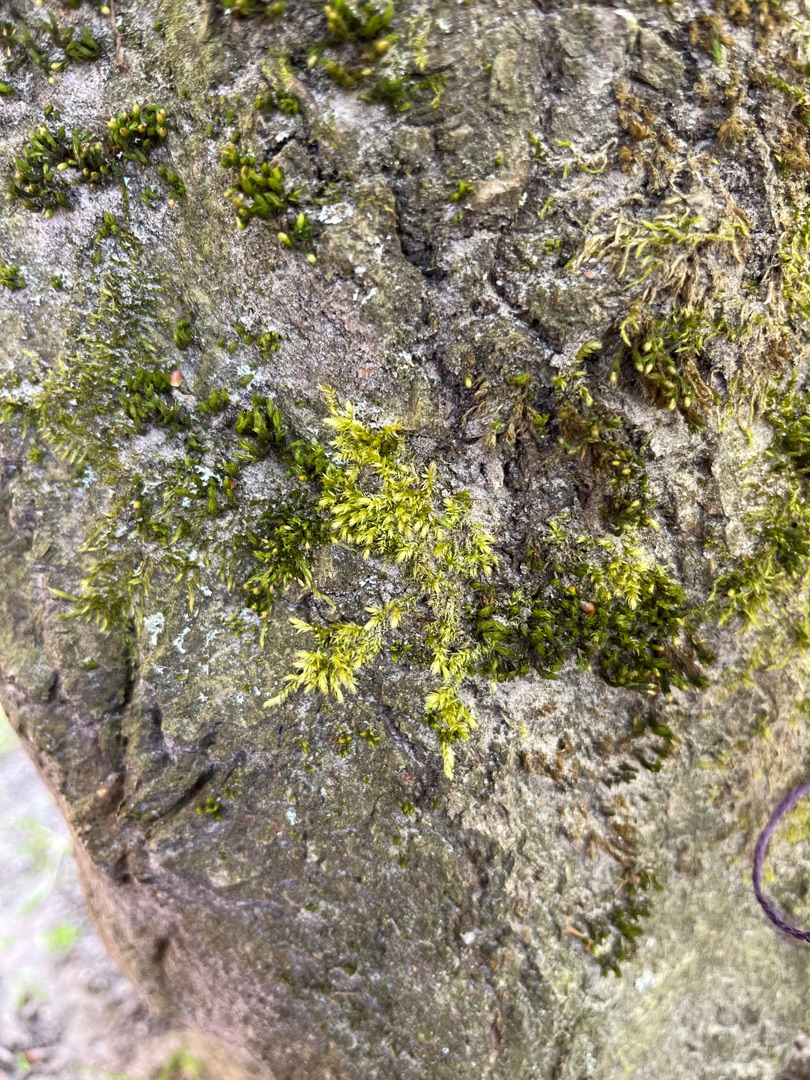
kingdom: Plantae
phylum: Bryophyta
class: Bryopsida
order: Hypnales
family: Brachytheciaceae
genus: Brachythecium
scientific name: Brachythecium rutabulum
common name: Almindelig kortkapsel
